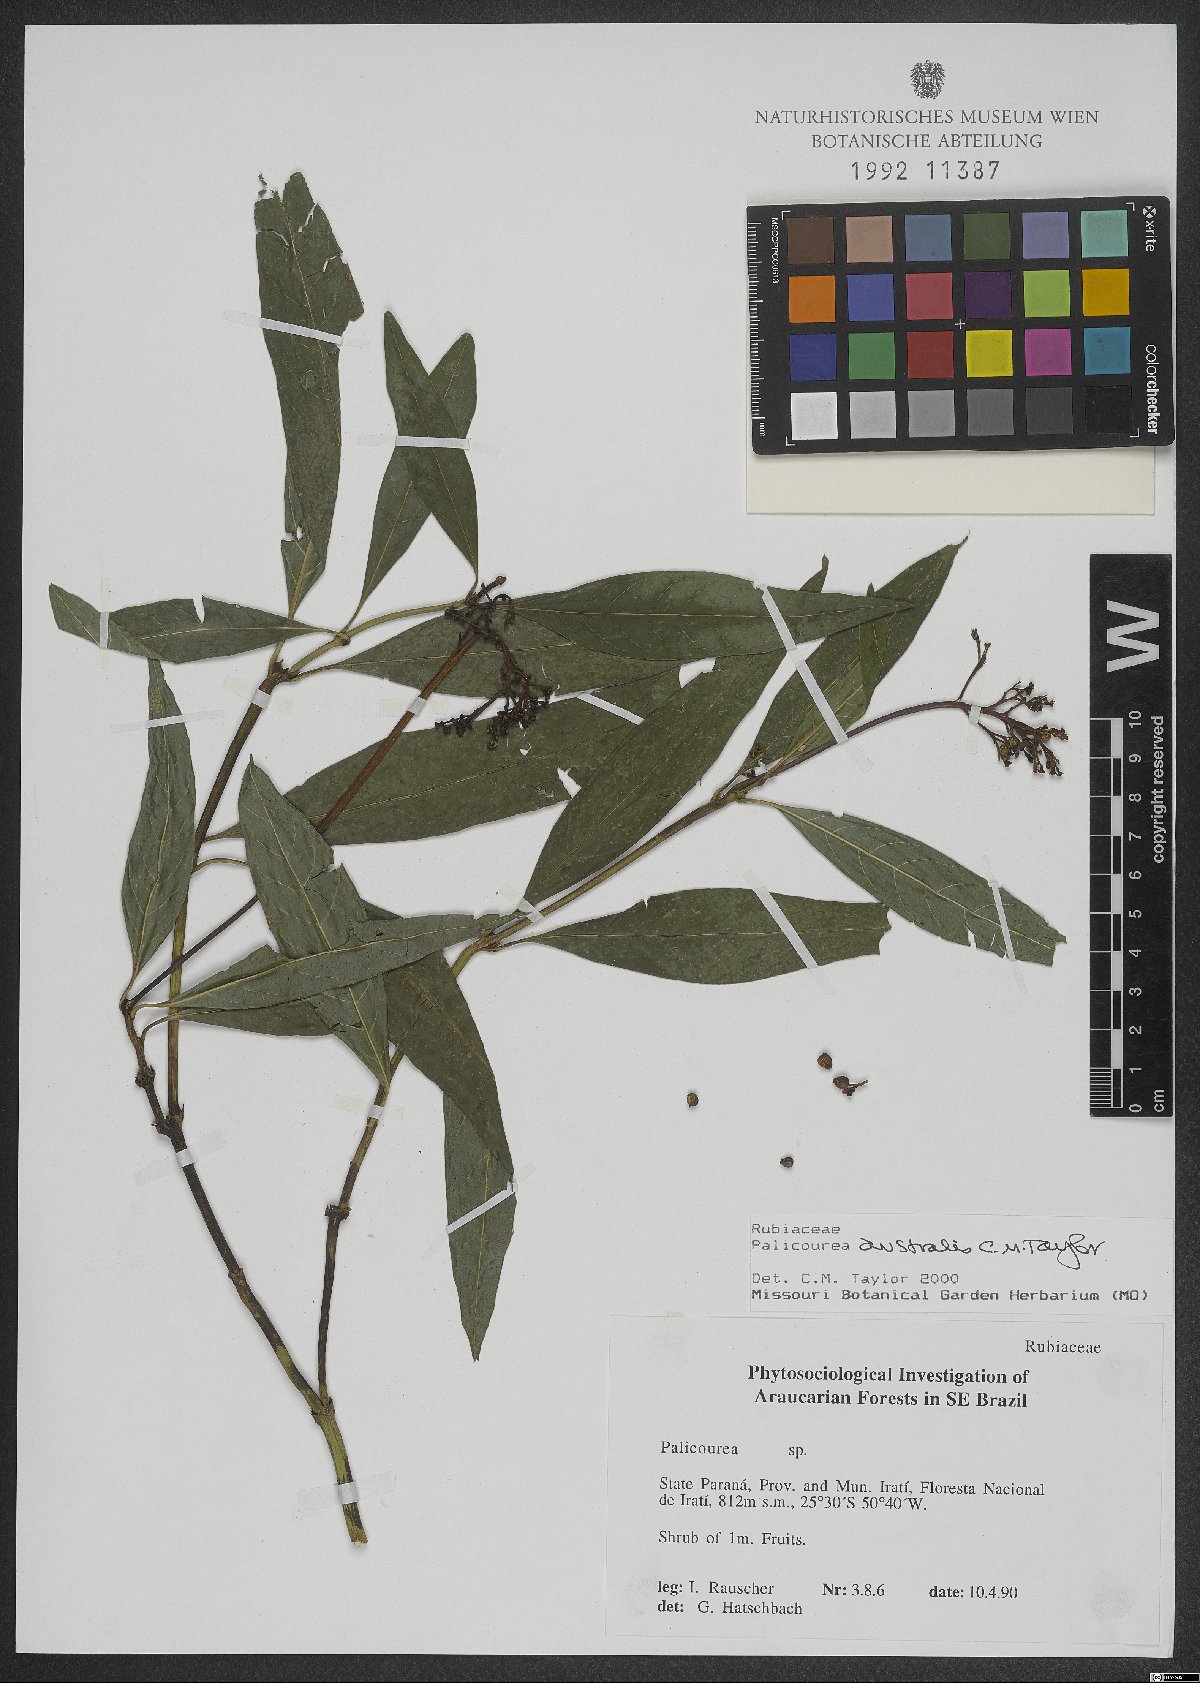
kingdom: Plantae
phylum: Tracheophyta
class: Magnoliopsida
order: Gentianales
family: Rubiaceae
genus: Palicourea
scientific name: Palicourea australis
